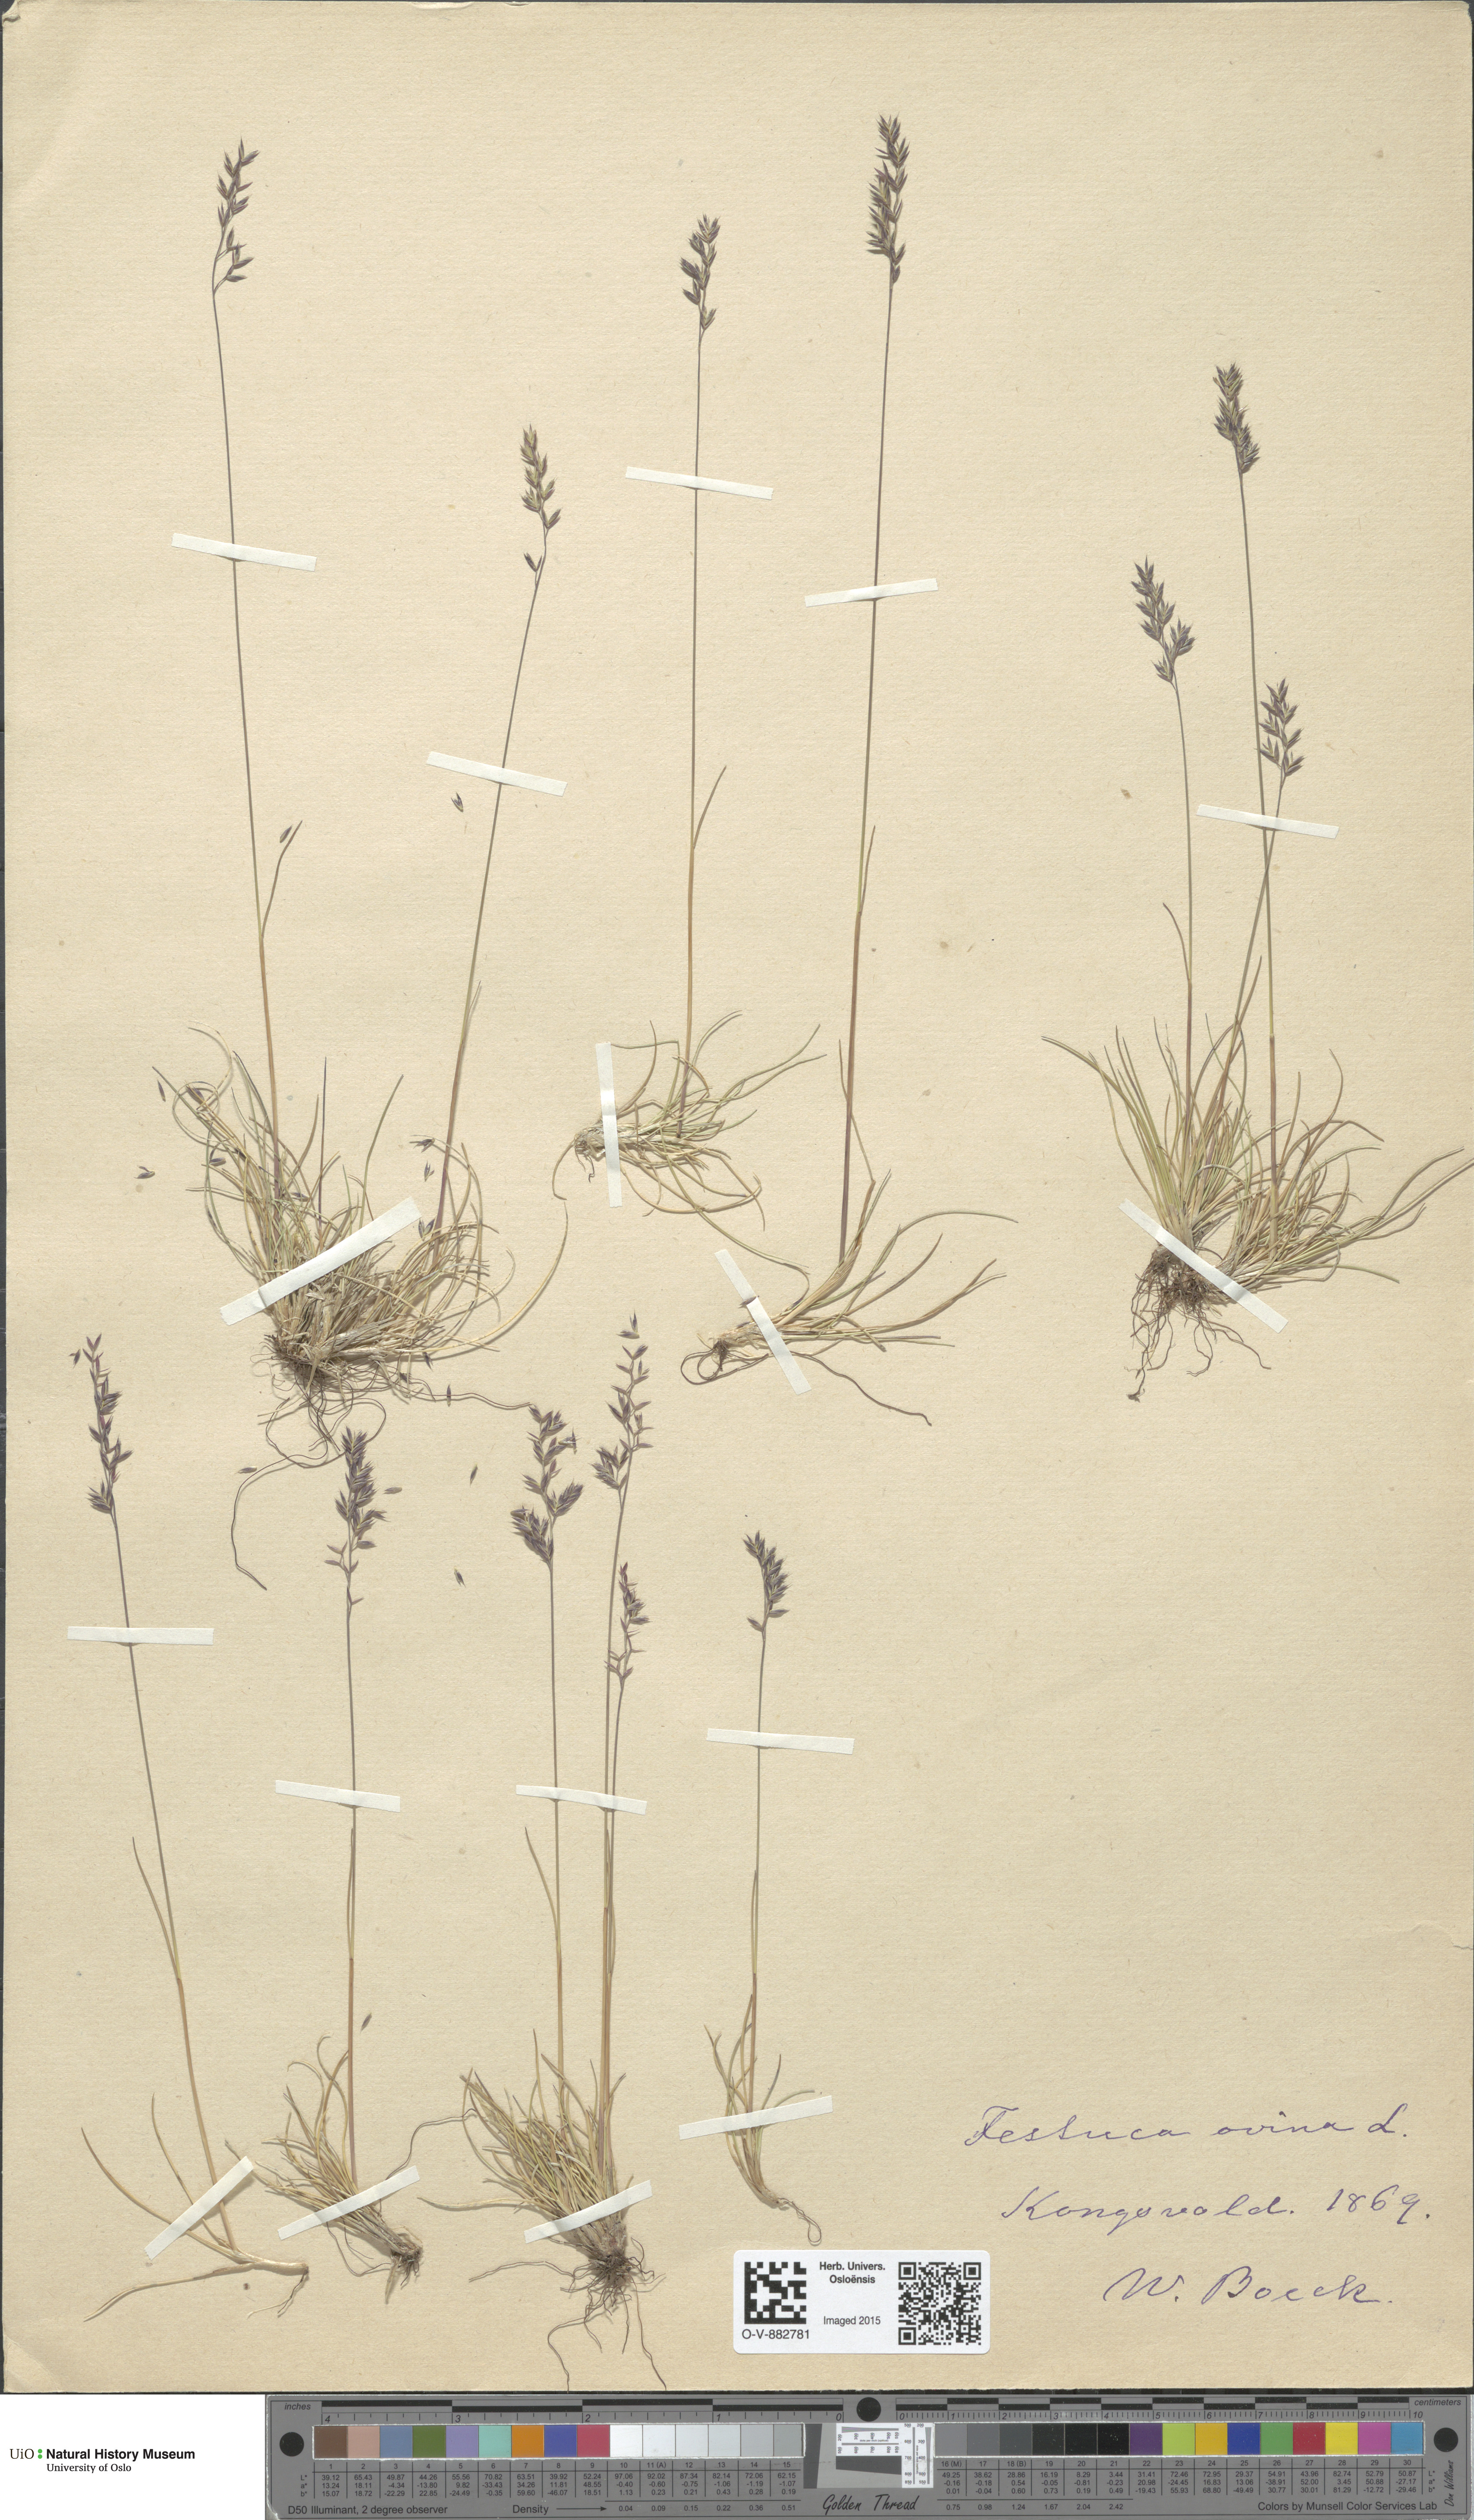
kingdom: Plantae
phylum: Tracheophyta
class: Liliopsida
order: Poales
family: Poaceae
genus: Festuca
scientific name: Festuca ovina
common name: Sheep fescue
